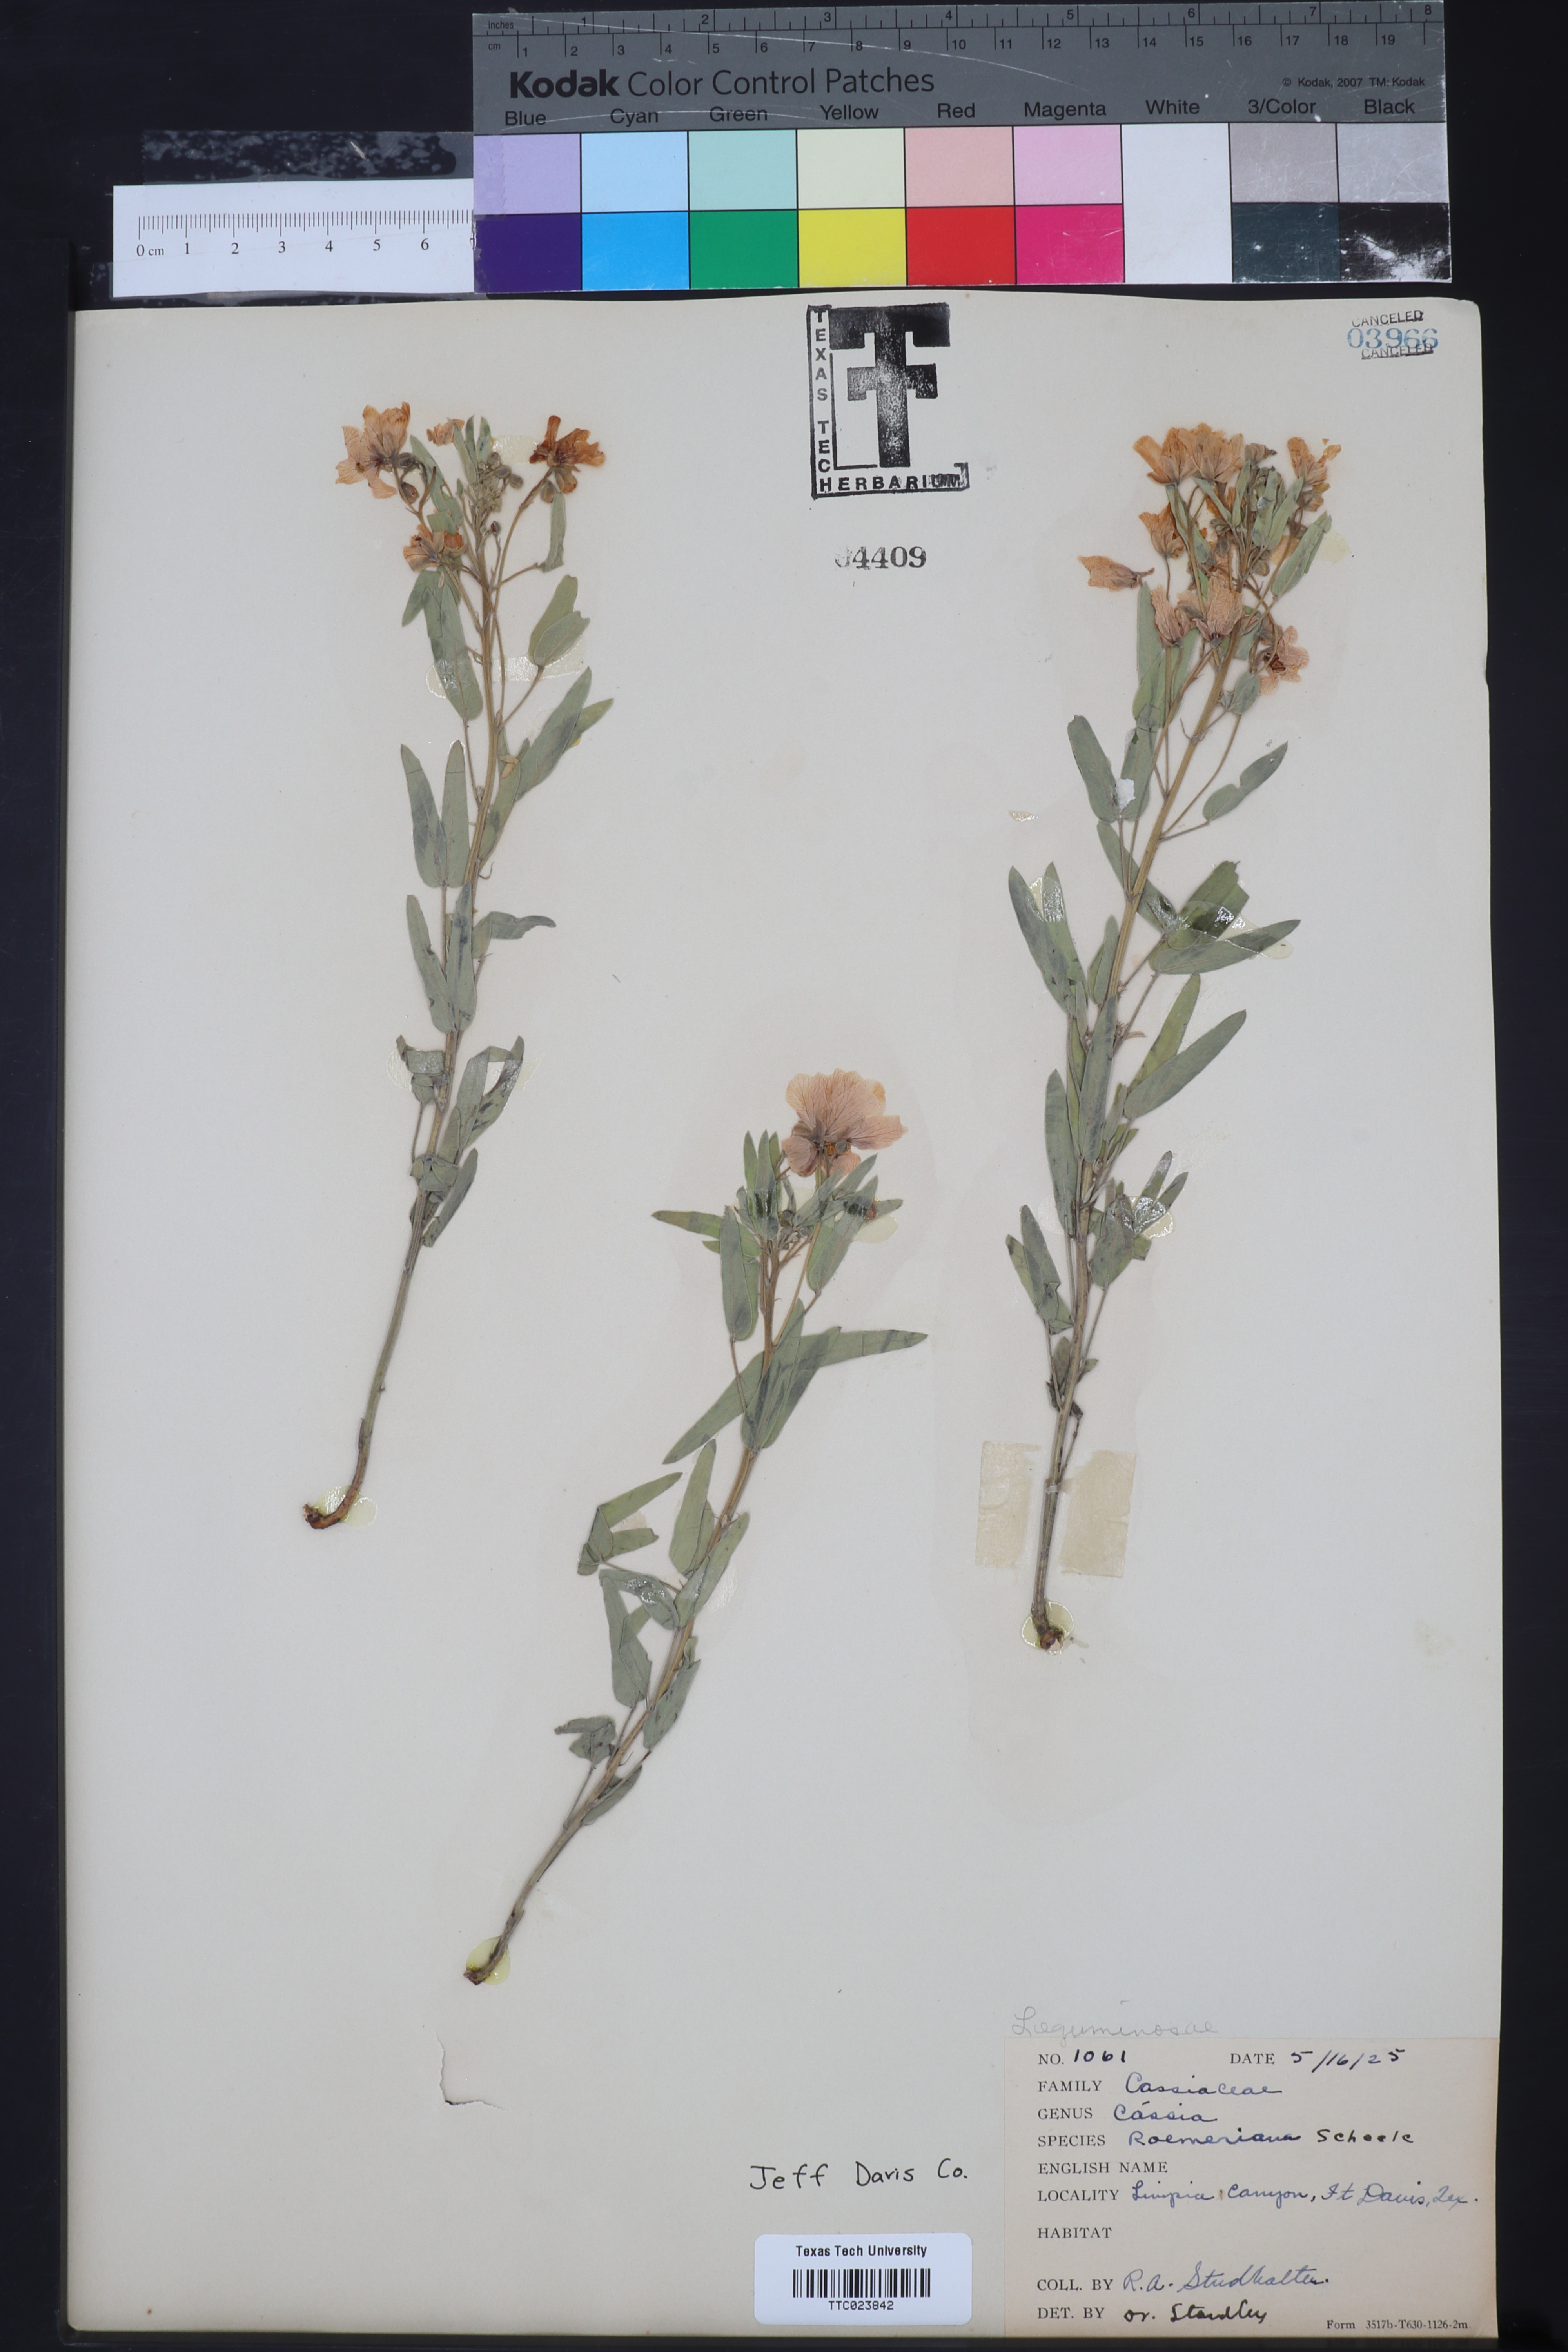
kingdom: Plantae
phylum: Tracheophyta
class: Magnoliopsida
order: Fabales
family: Fabaceae
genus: Senna
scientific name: Senna roemeriana
